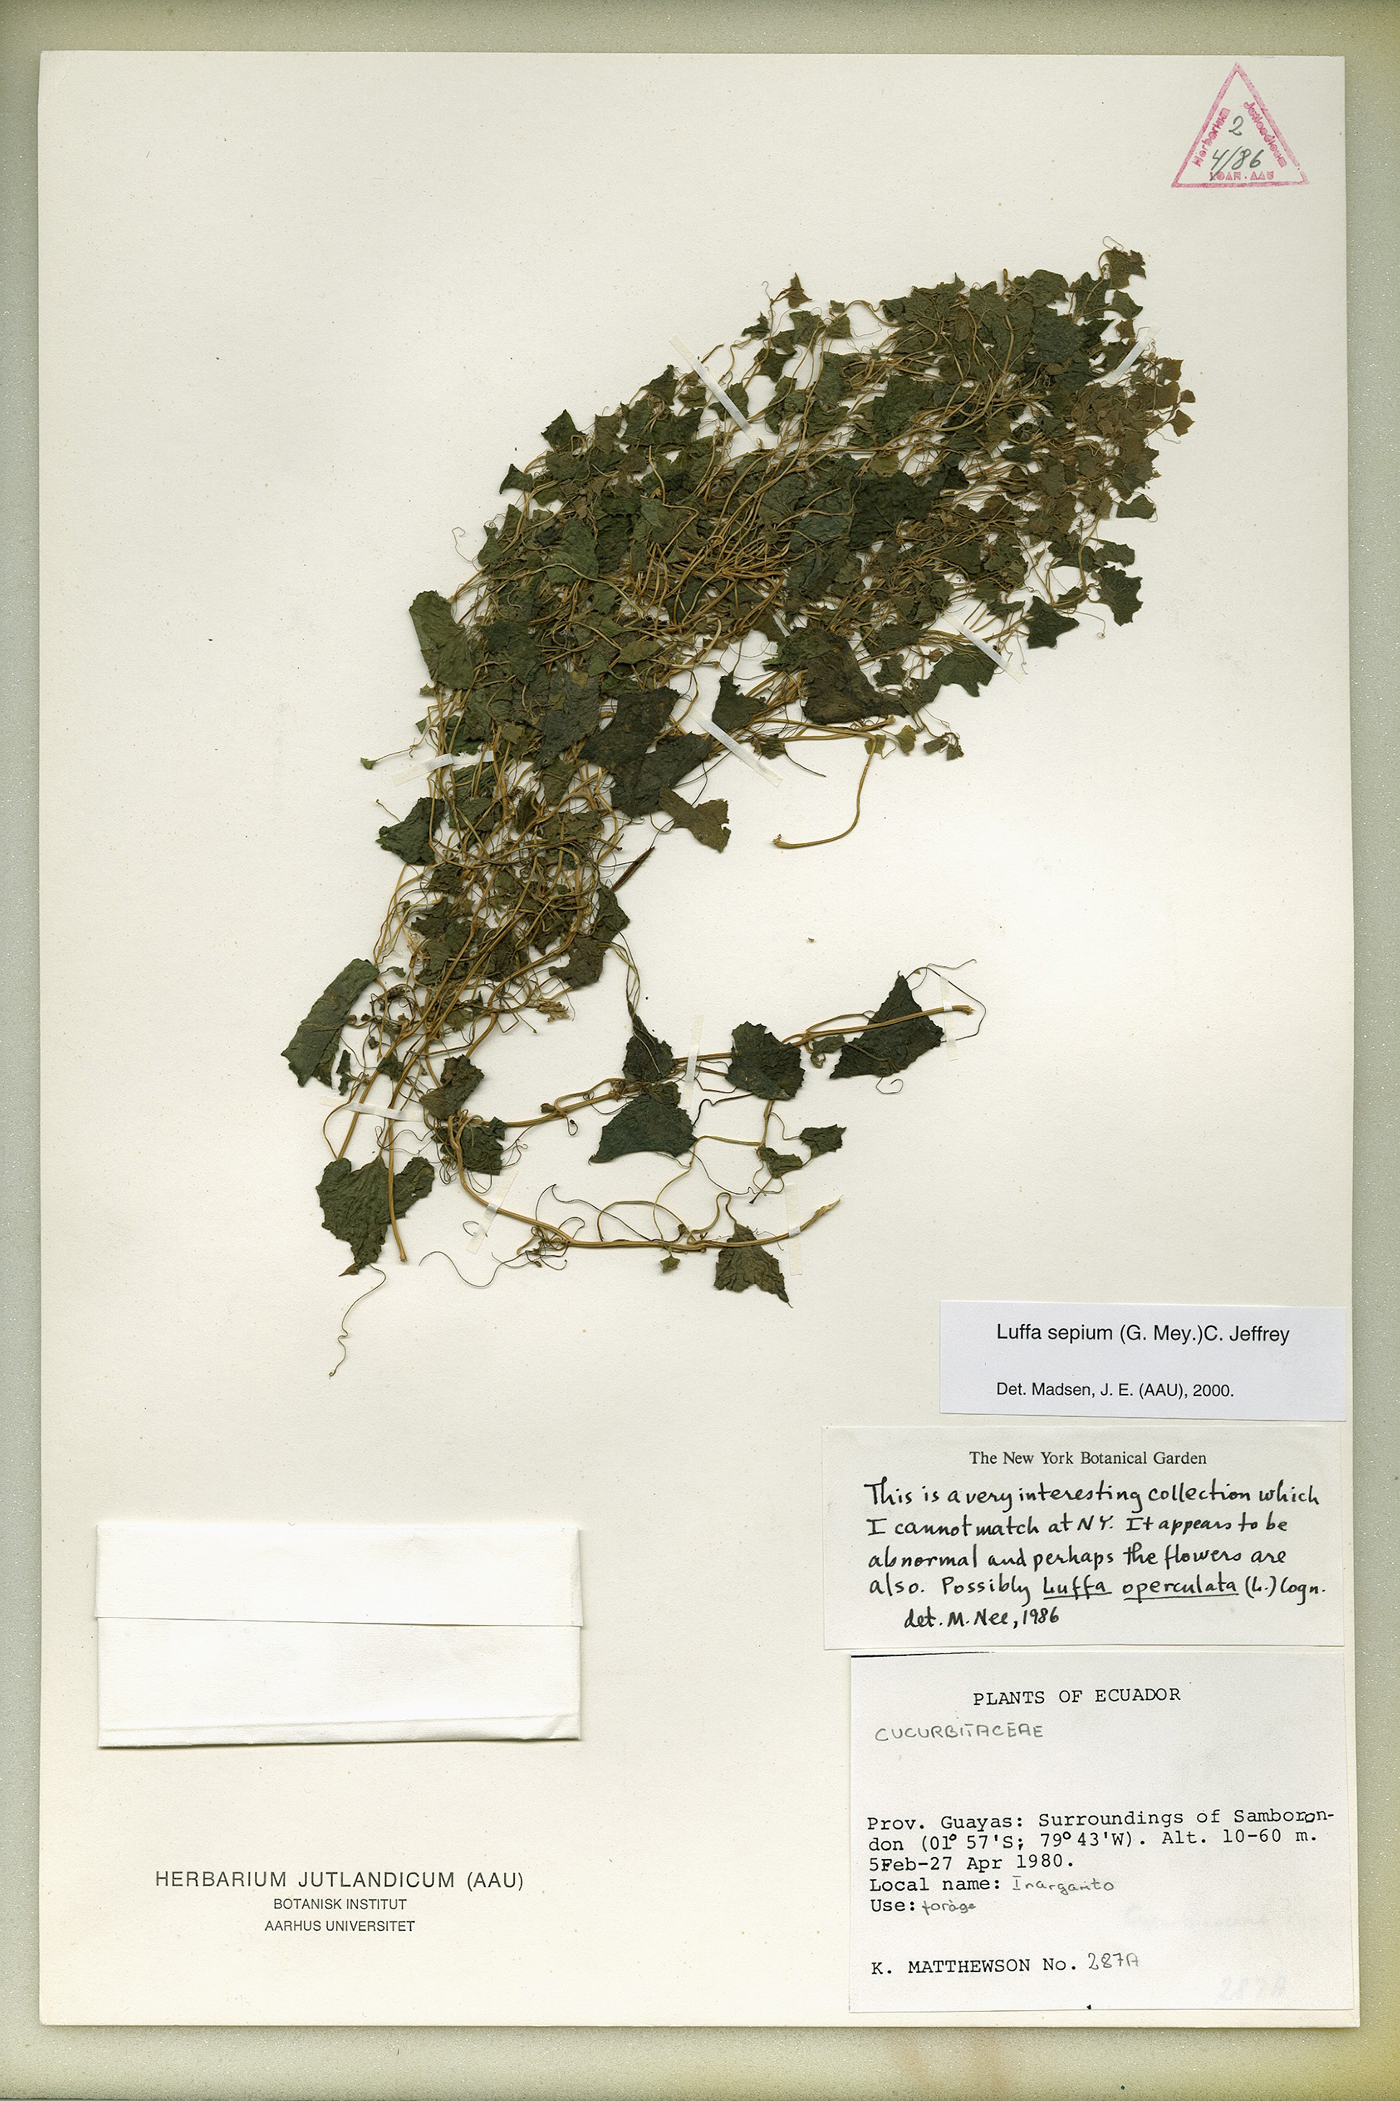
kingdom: Plantae
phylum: Tracheophyta
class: Magnoliopsida
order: Cucurbitales
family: Cucurbitaceae
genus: Luffa
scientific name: Luffa astorii
